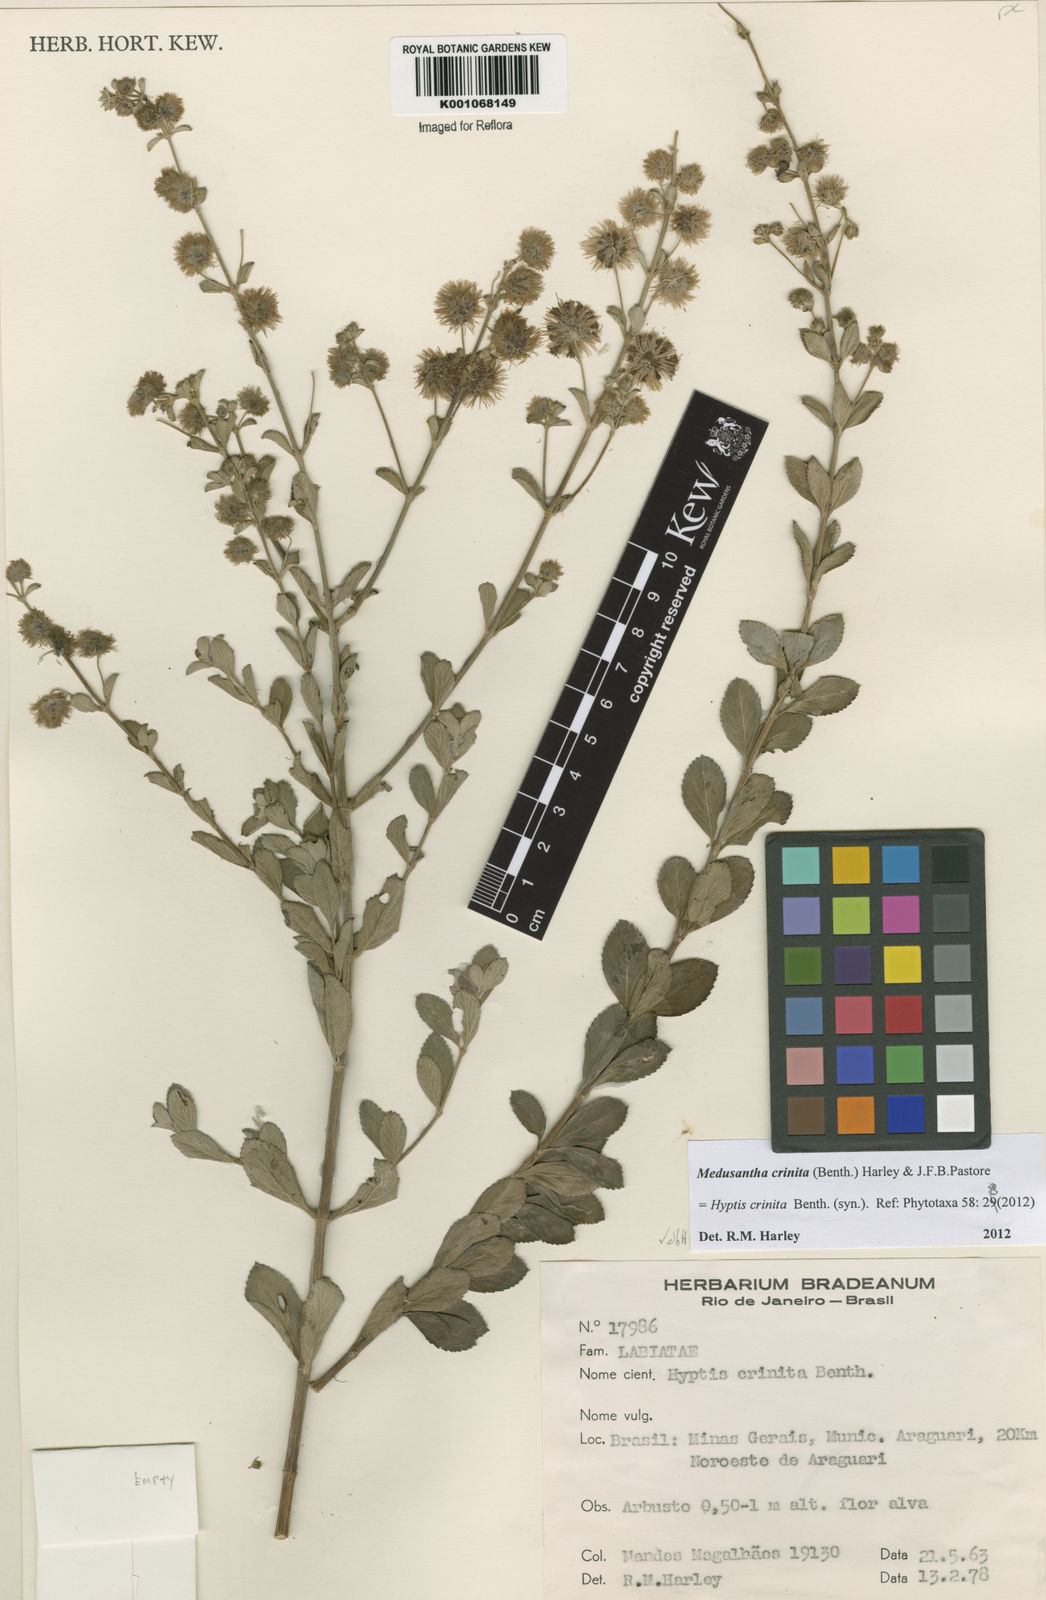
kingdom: Plantae
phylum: Tracheophyta
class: Magnoliopsida
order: Lamiales
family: Lamiaceae
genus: Medusantha
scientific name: Medusantha crinita
